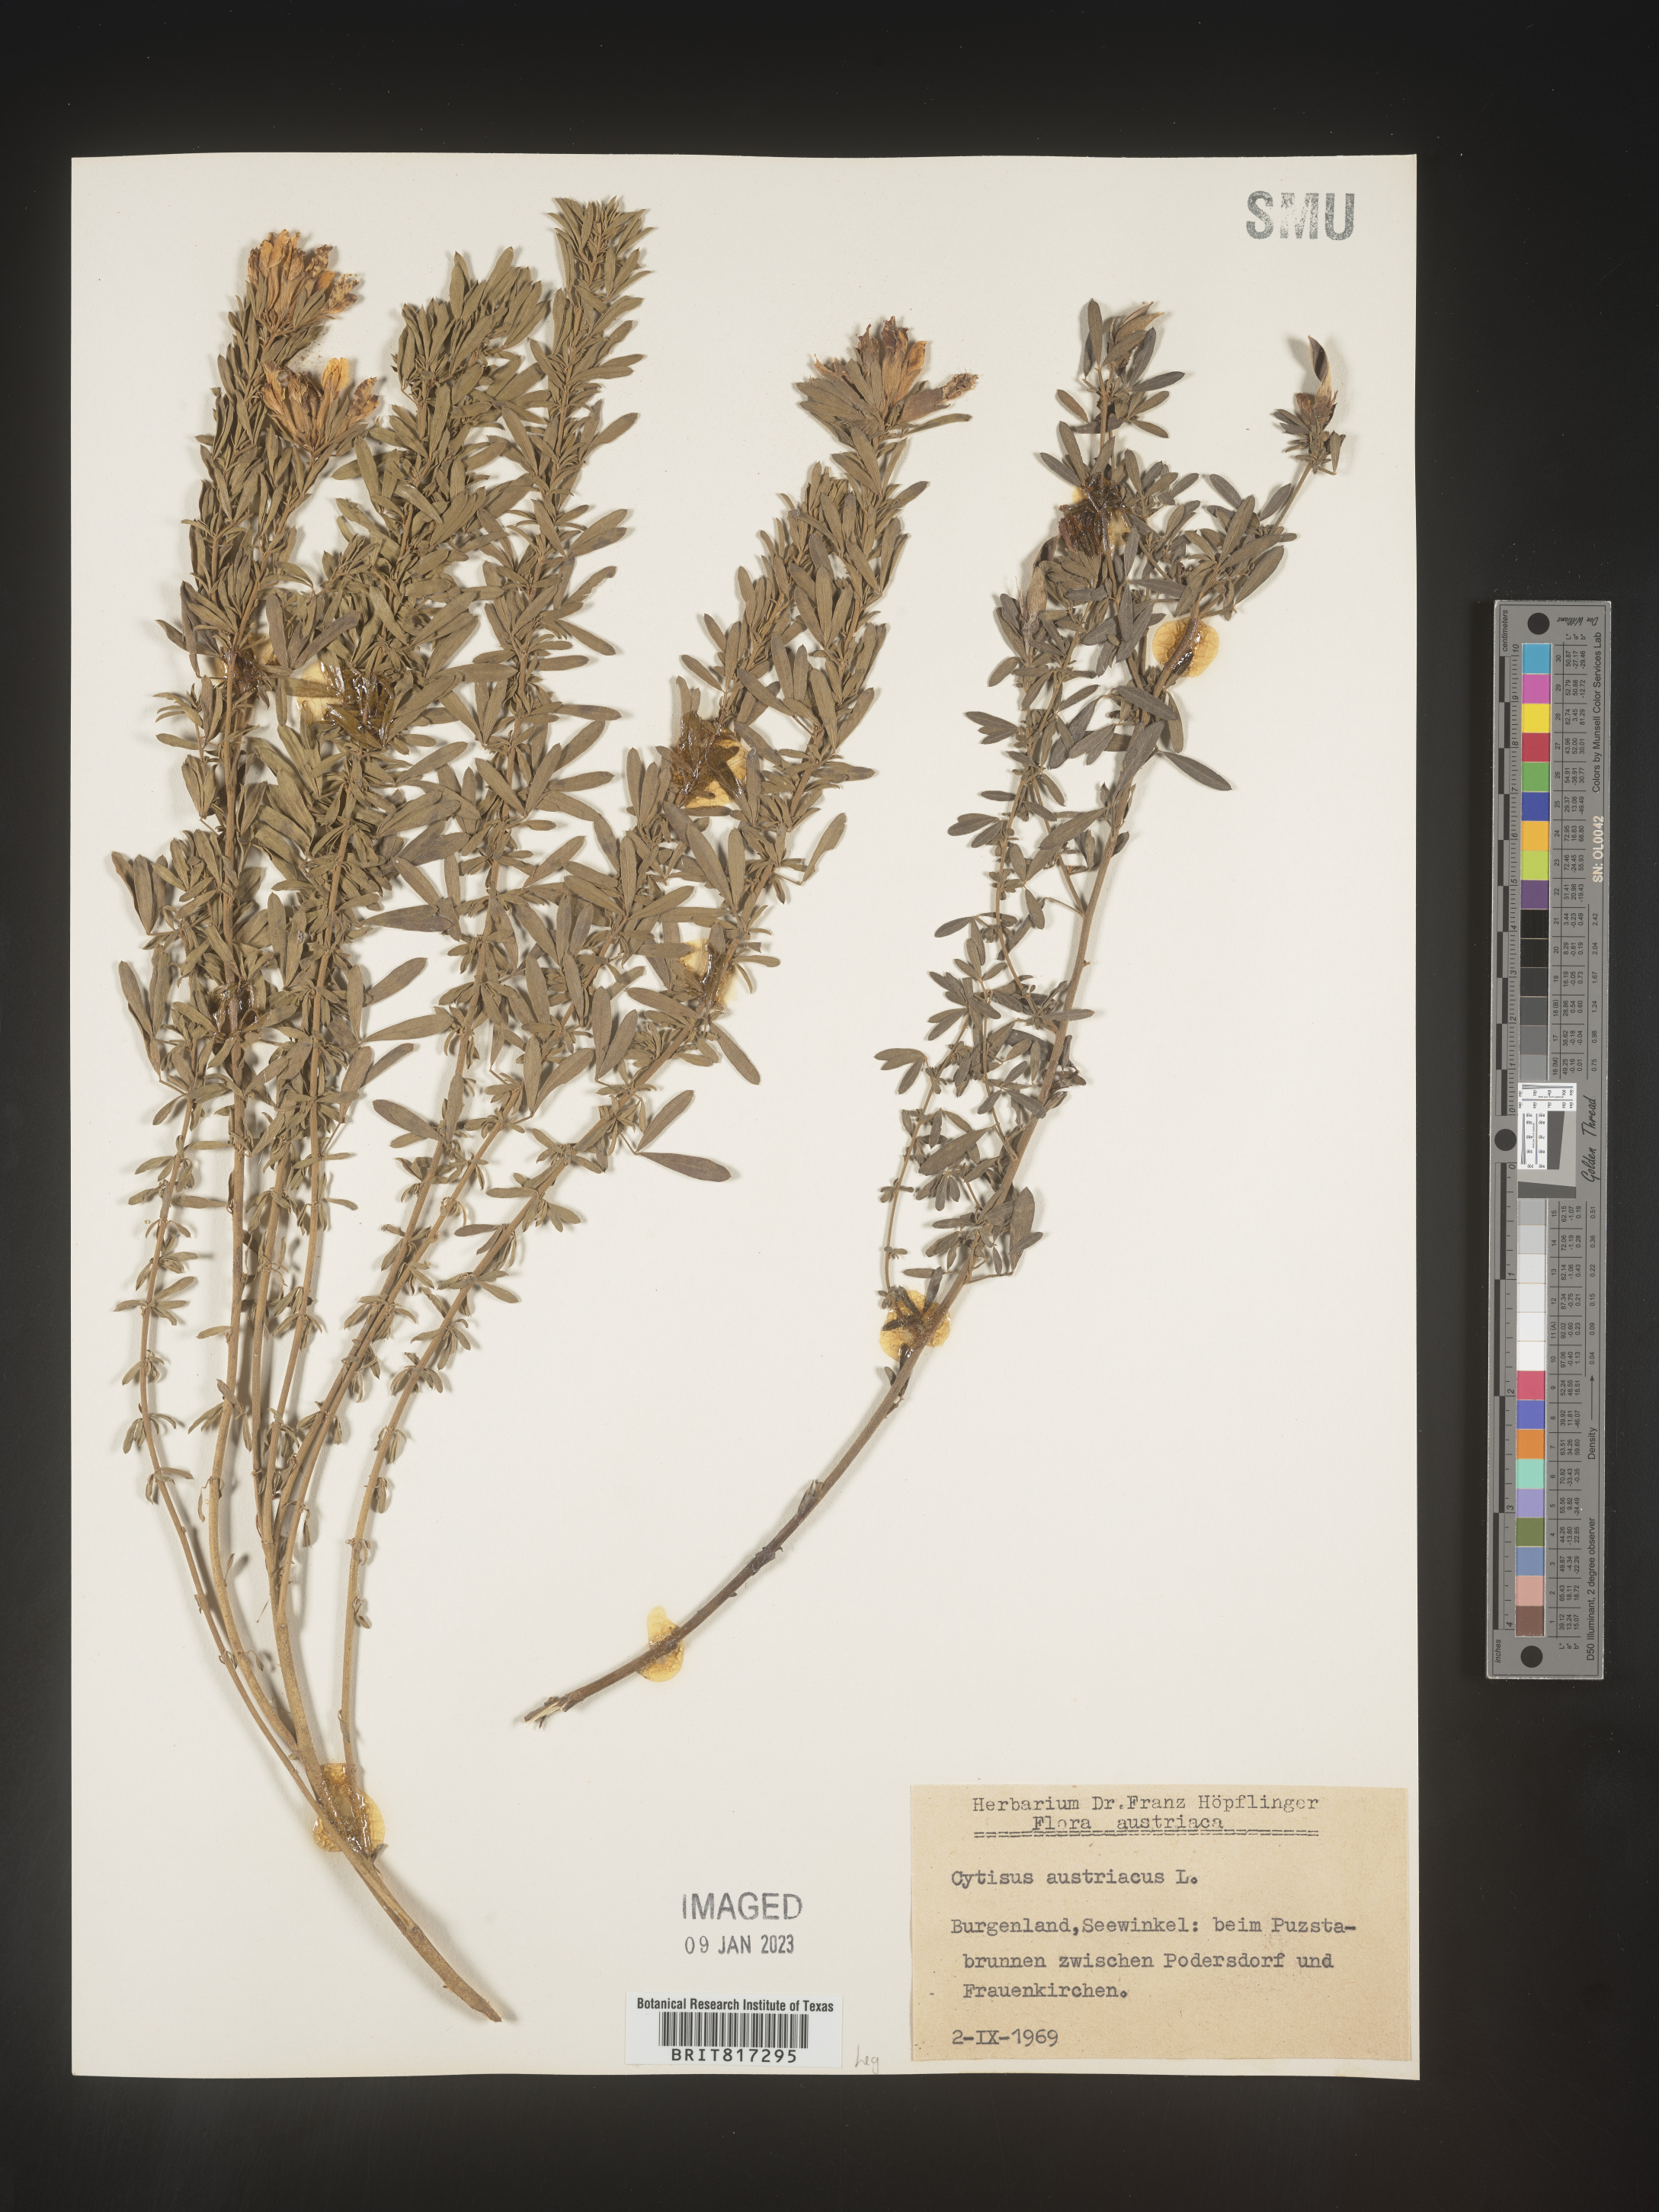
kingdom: Plantae
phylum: Tracheophyta
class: Magnoliopsida
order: Fabales
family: Fabaceae
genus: Cytisus
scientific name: Cytisus
